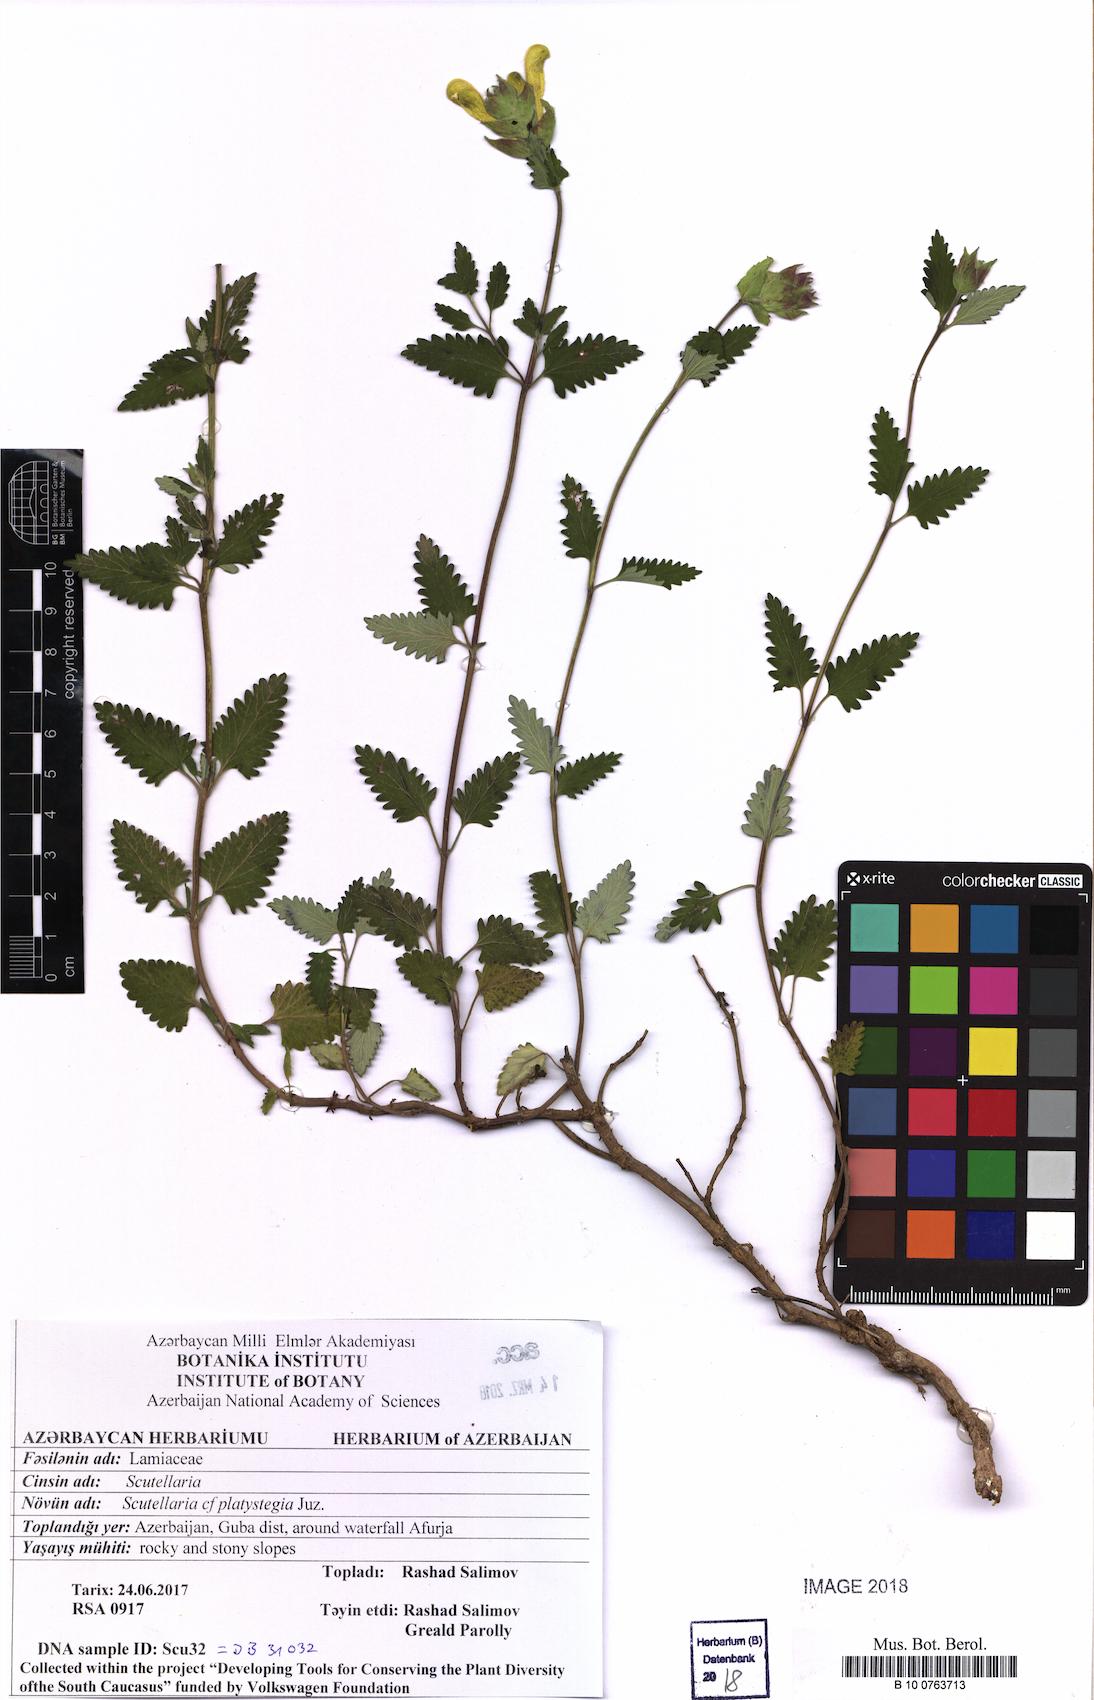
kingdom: Plantae
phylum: Tracheophyta
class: Magnoliopsida
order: Lamiales
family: Lamiaceae
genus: Scutellaria
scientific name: Scutellaria platystegia
